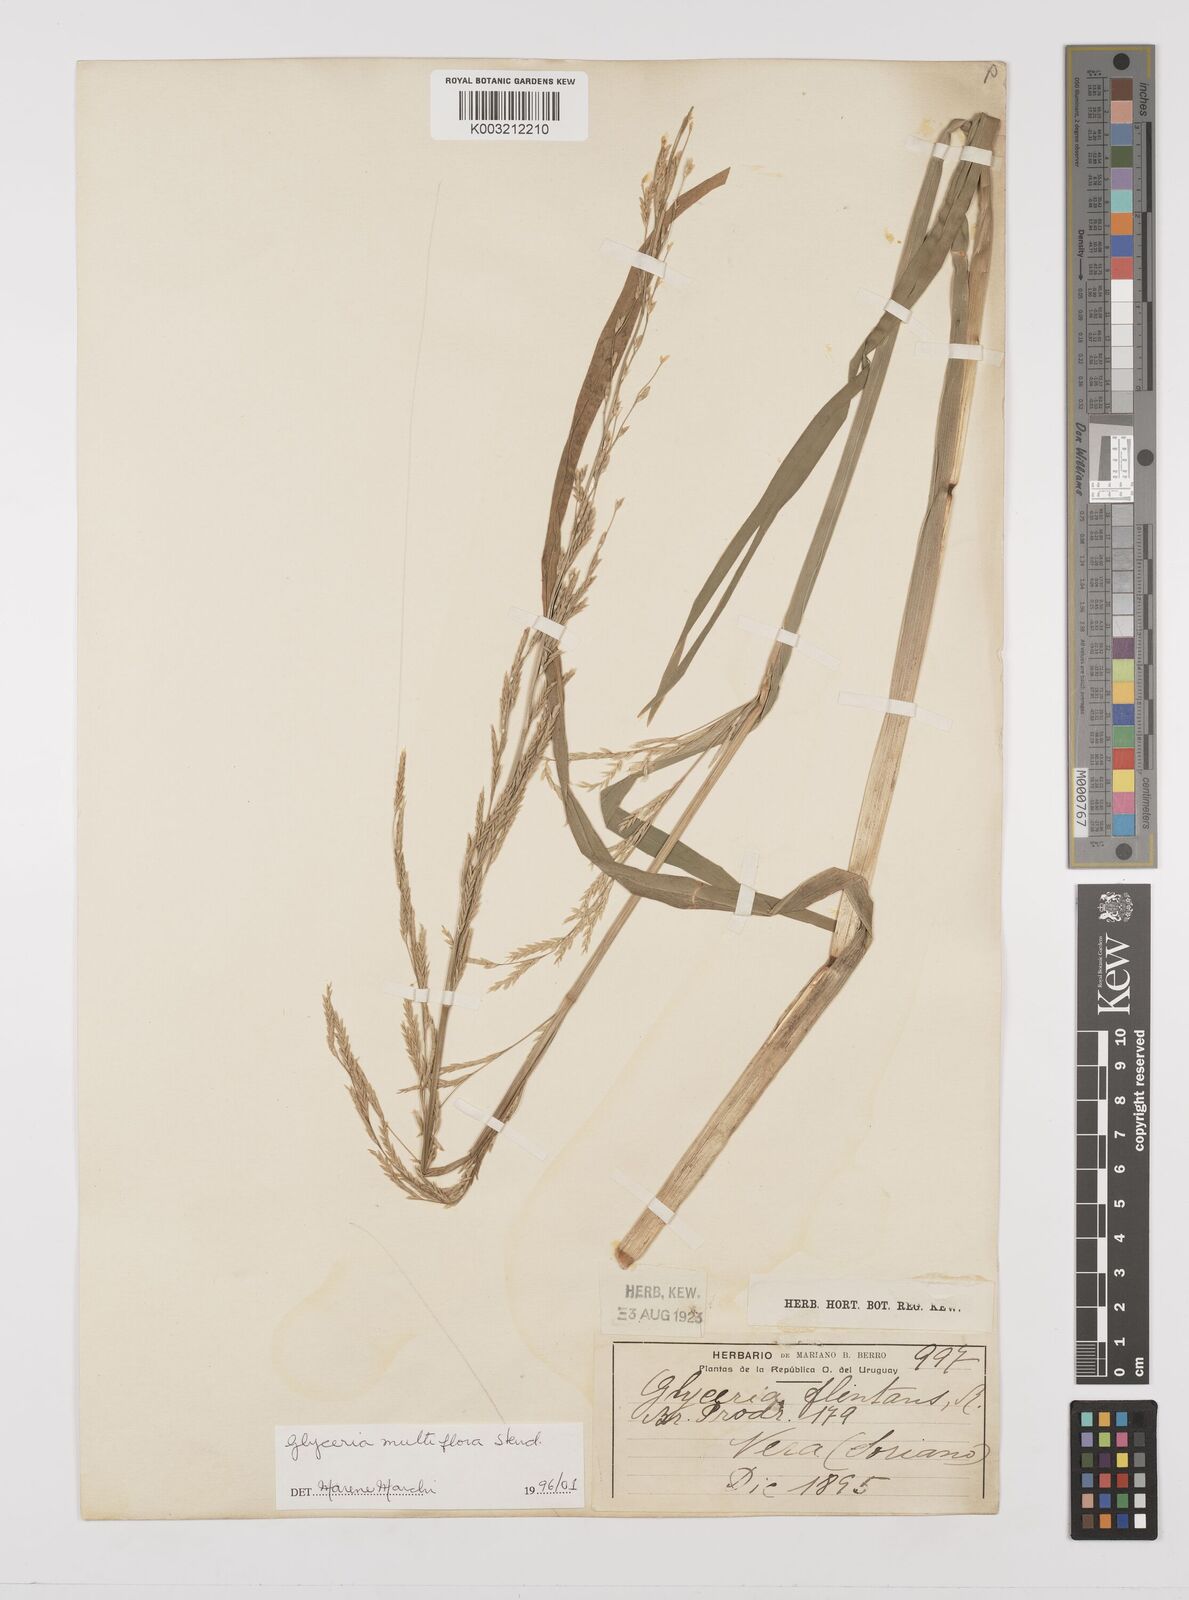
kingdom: Plantae
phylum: Tracheophyta
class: Liliopsida
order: Poales
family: Poaceae
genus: Glyceria
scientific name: Glyceria multiflora
